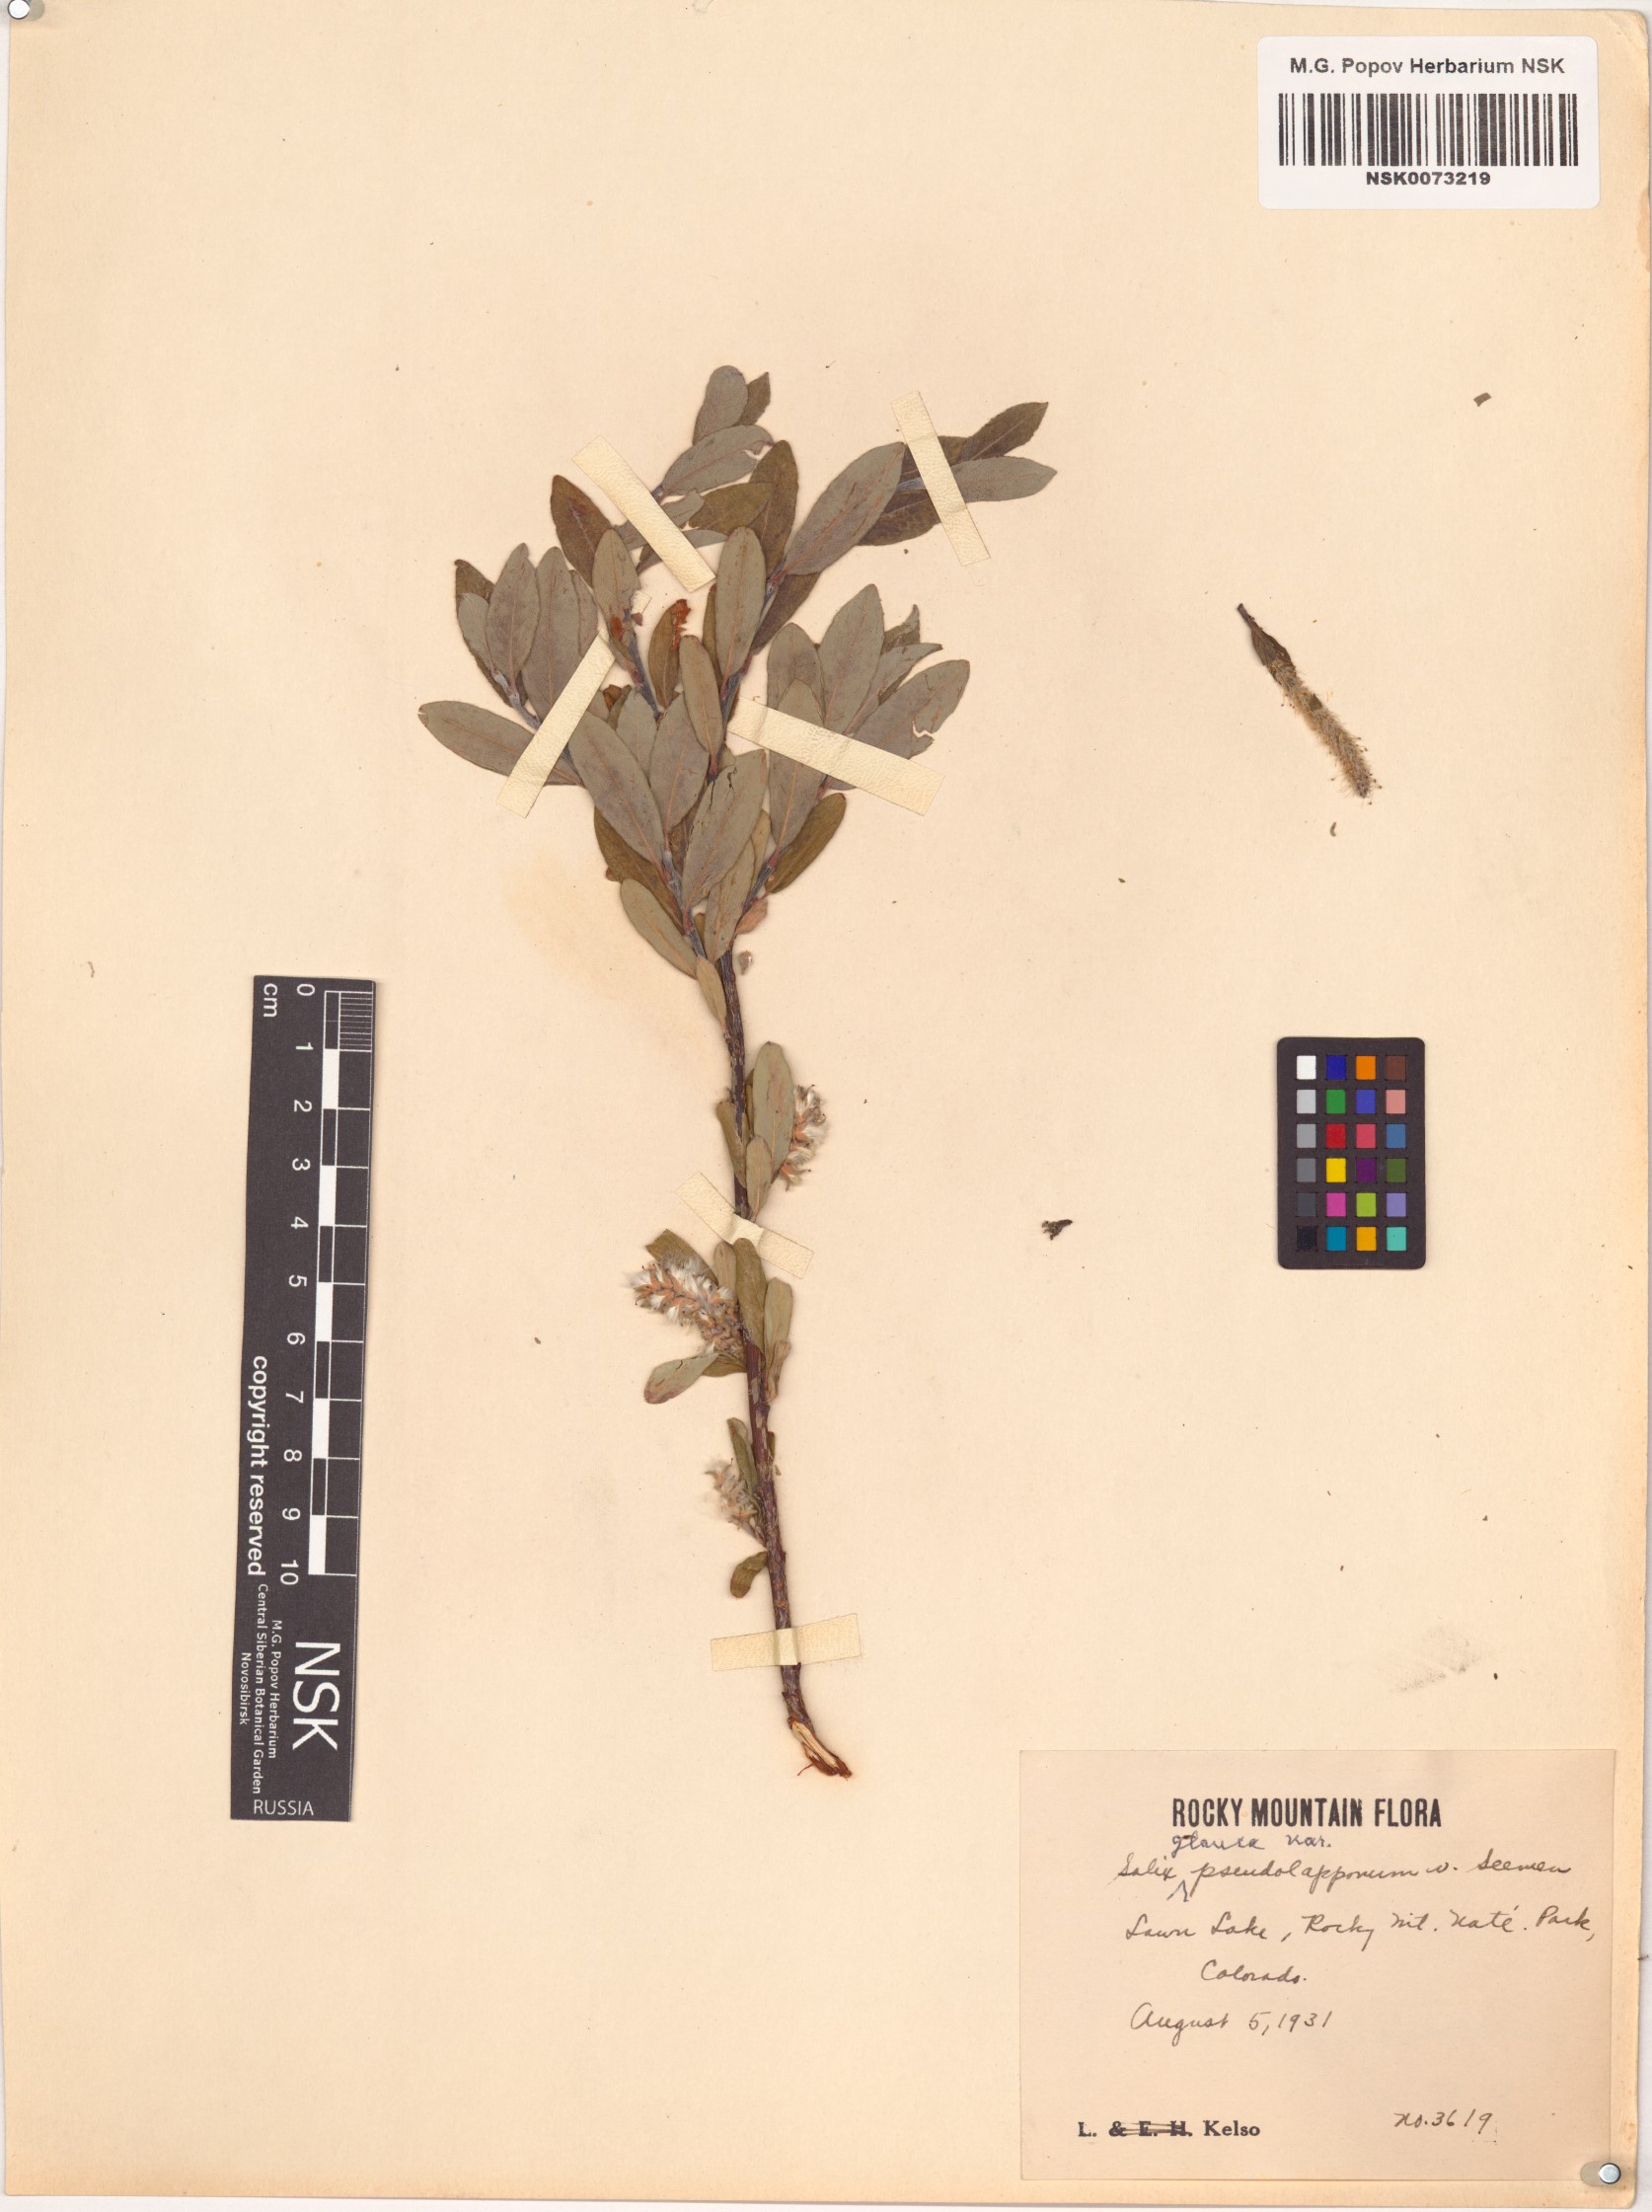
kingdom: Plantae
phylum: Tracheophyta
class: Magnoliopsida
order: Malpighiales
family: Salicaceae
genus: Salix
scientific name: Salix glauca
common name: Glaucous willow
